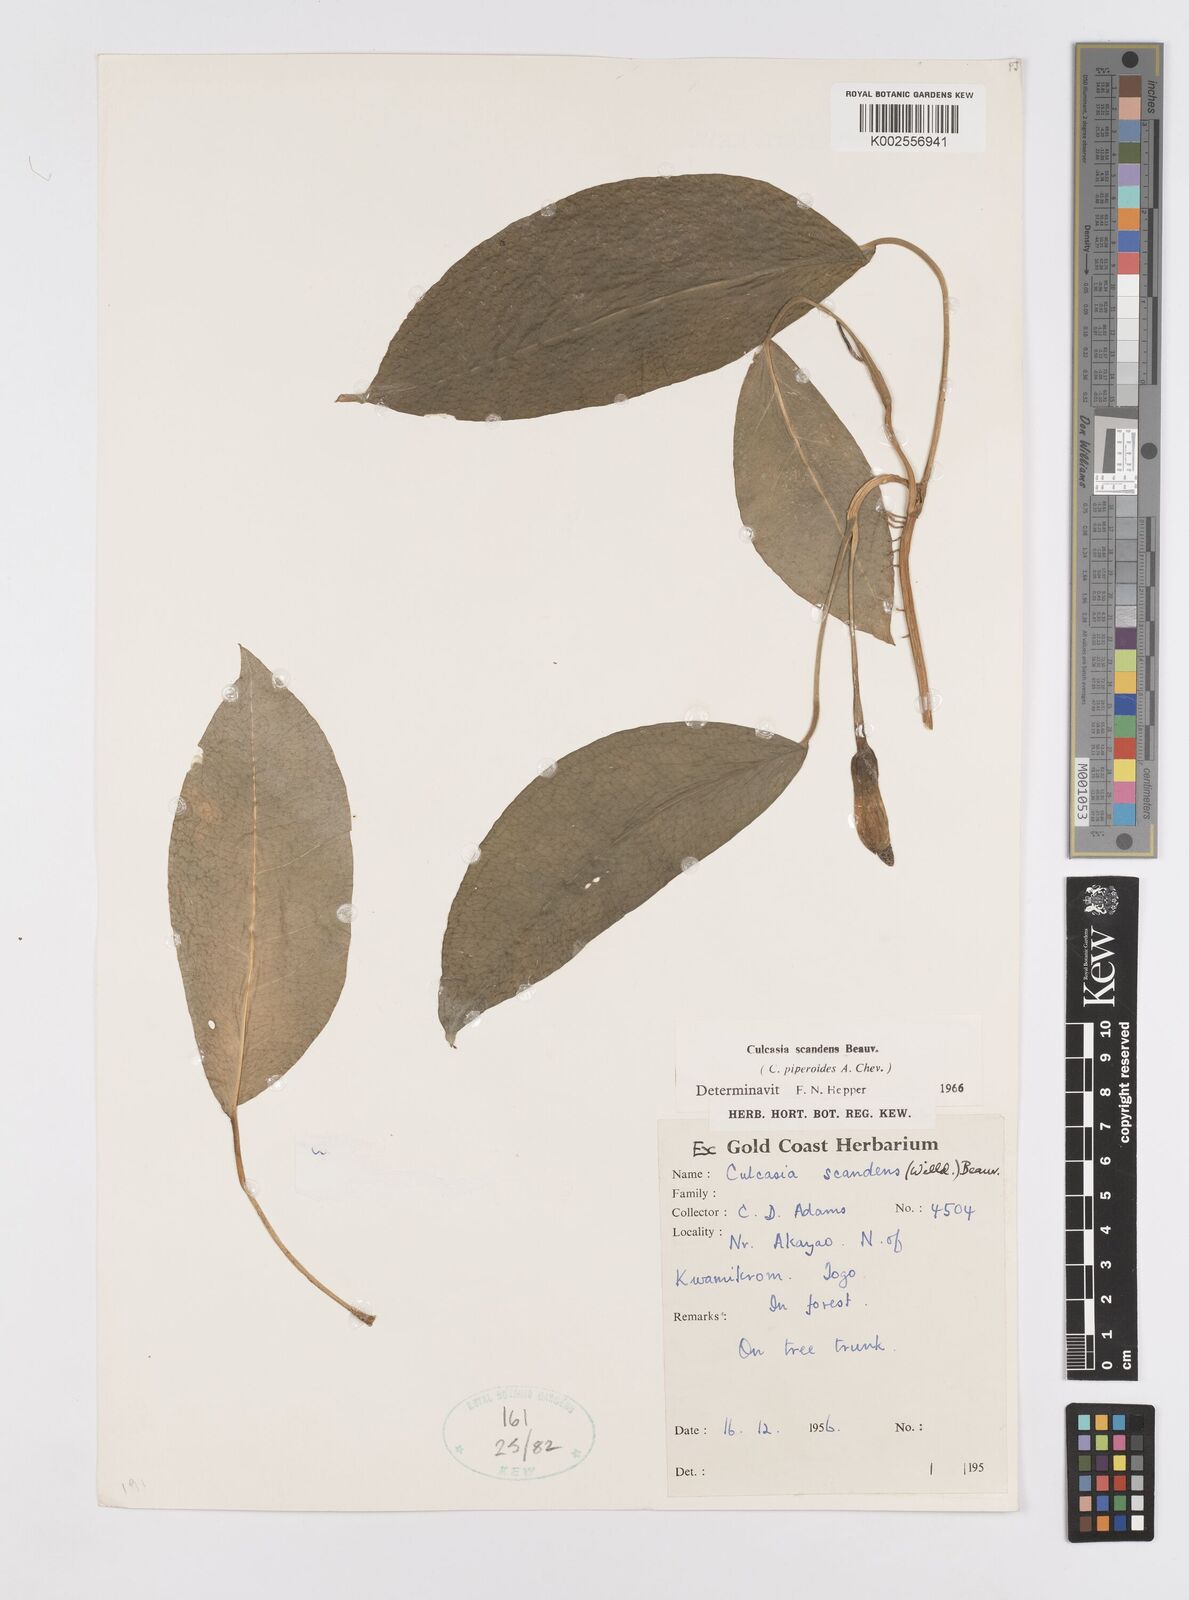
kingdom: Plantae
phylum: Tracheophyta
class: Liliopsida
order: Alismatales
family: Araceae
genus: Culcasia
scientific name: Culcasia scandens
